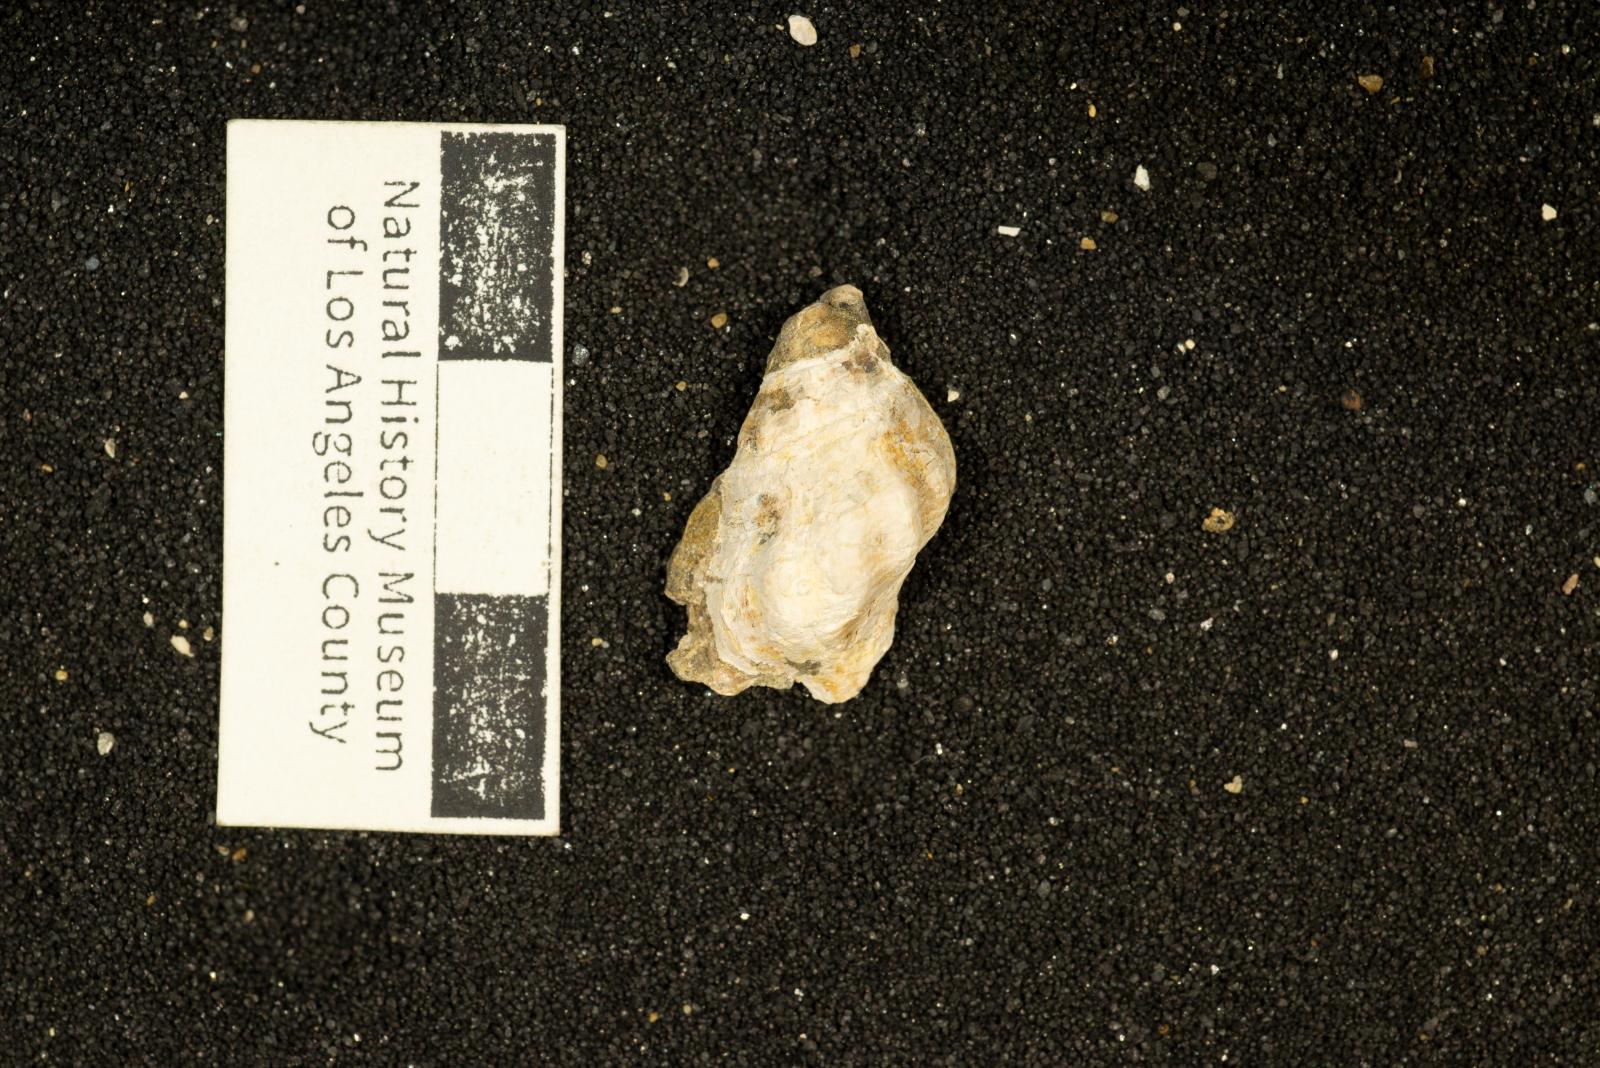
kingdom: Animalia
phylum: Mollusca
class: Gastropoda
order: Neogastropoda
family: Perissityidae
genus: Murphitys
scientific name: Murphitys corona
